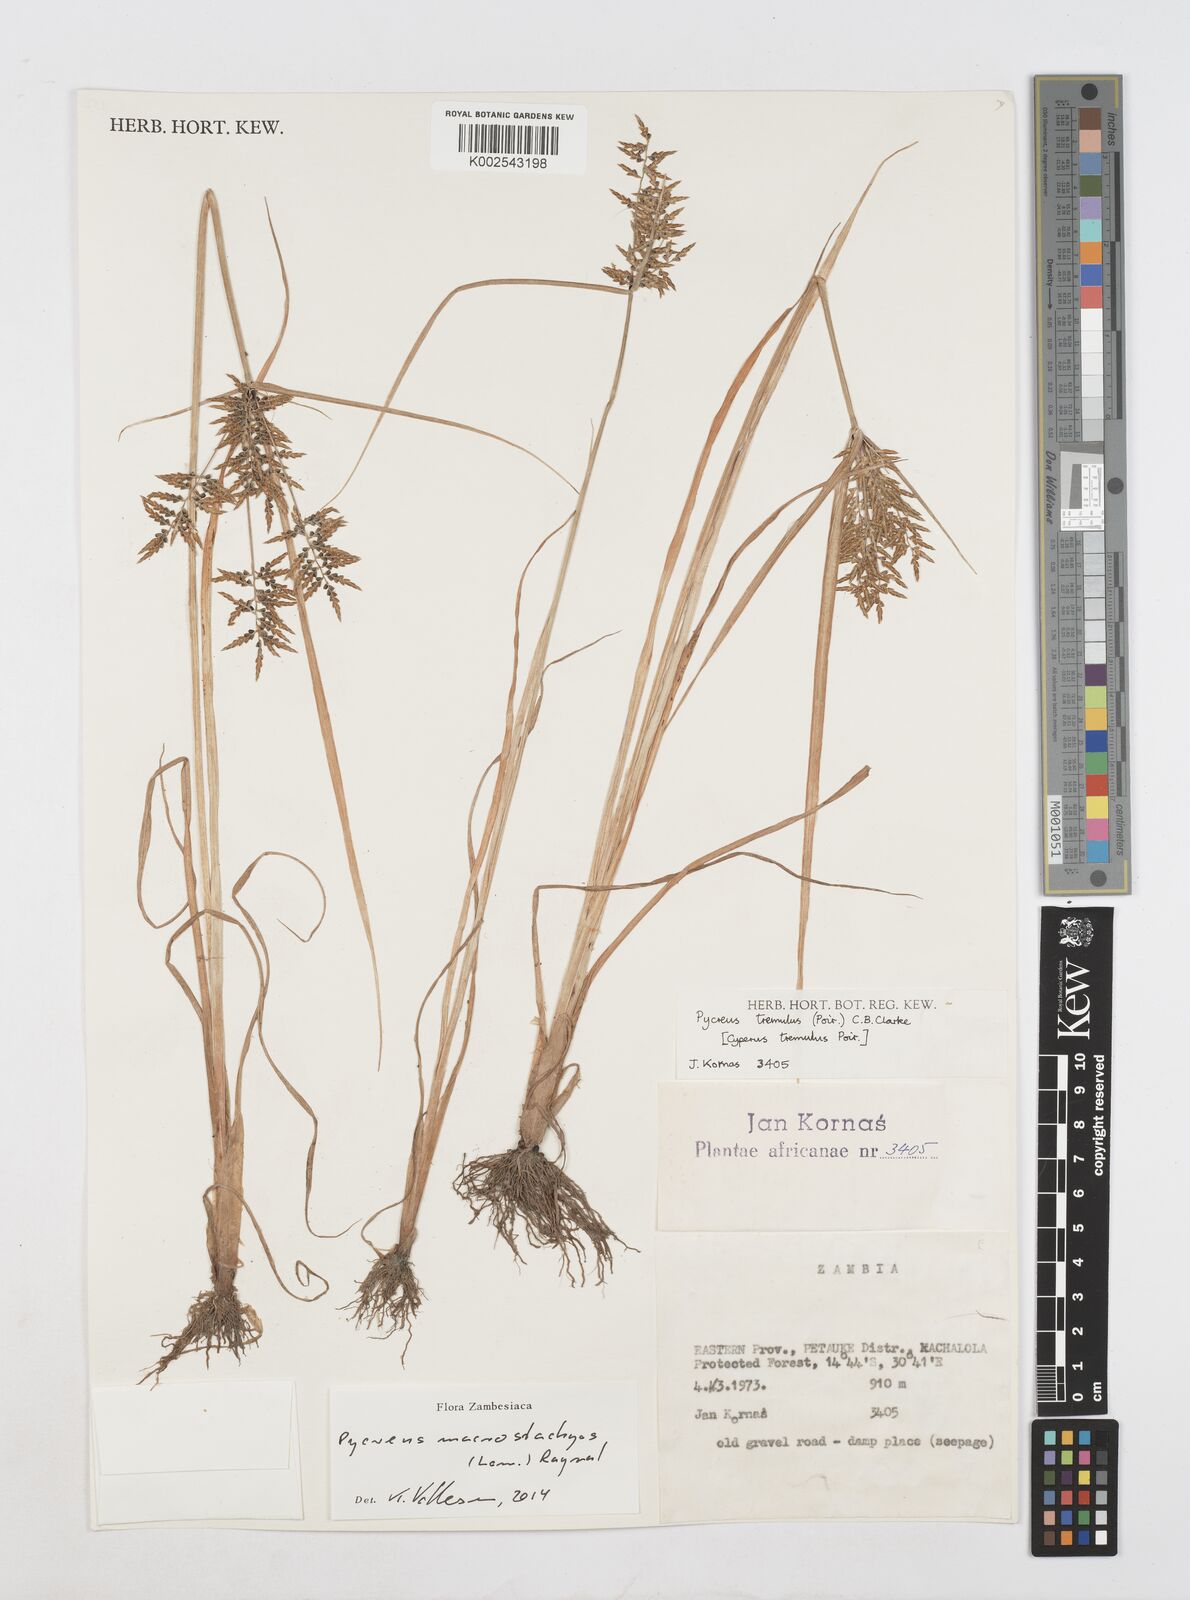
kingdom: Plantae
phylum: Tracheophyta
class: Liliopsida
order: Poales
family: Cyperaceae
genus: Cyperus
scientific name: Cyperus macrostachyos
